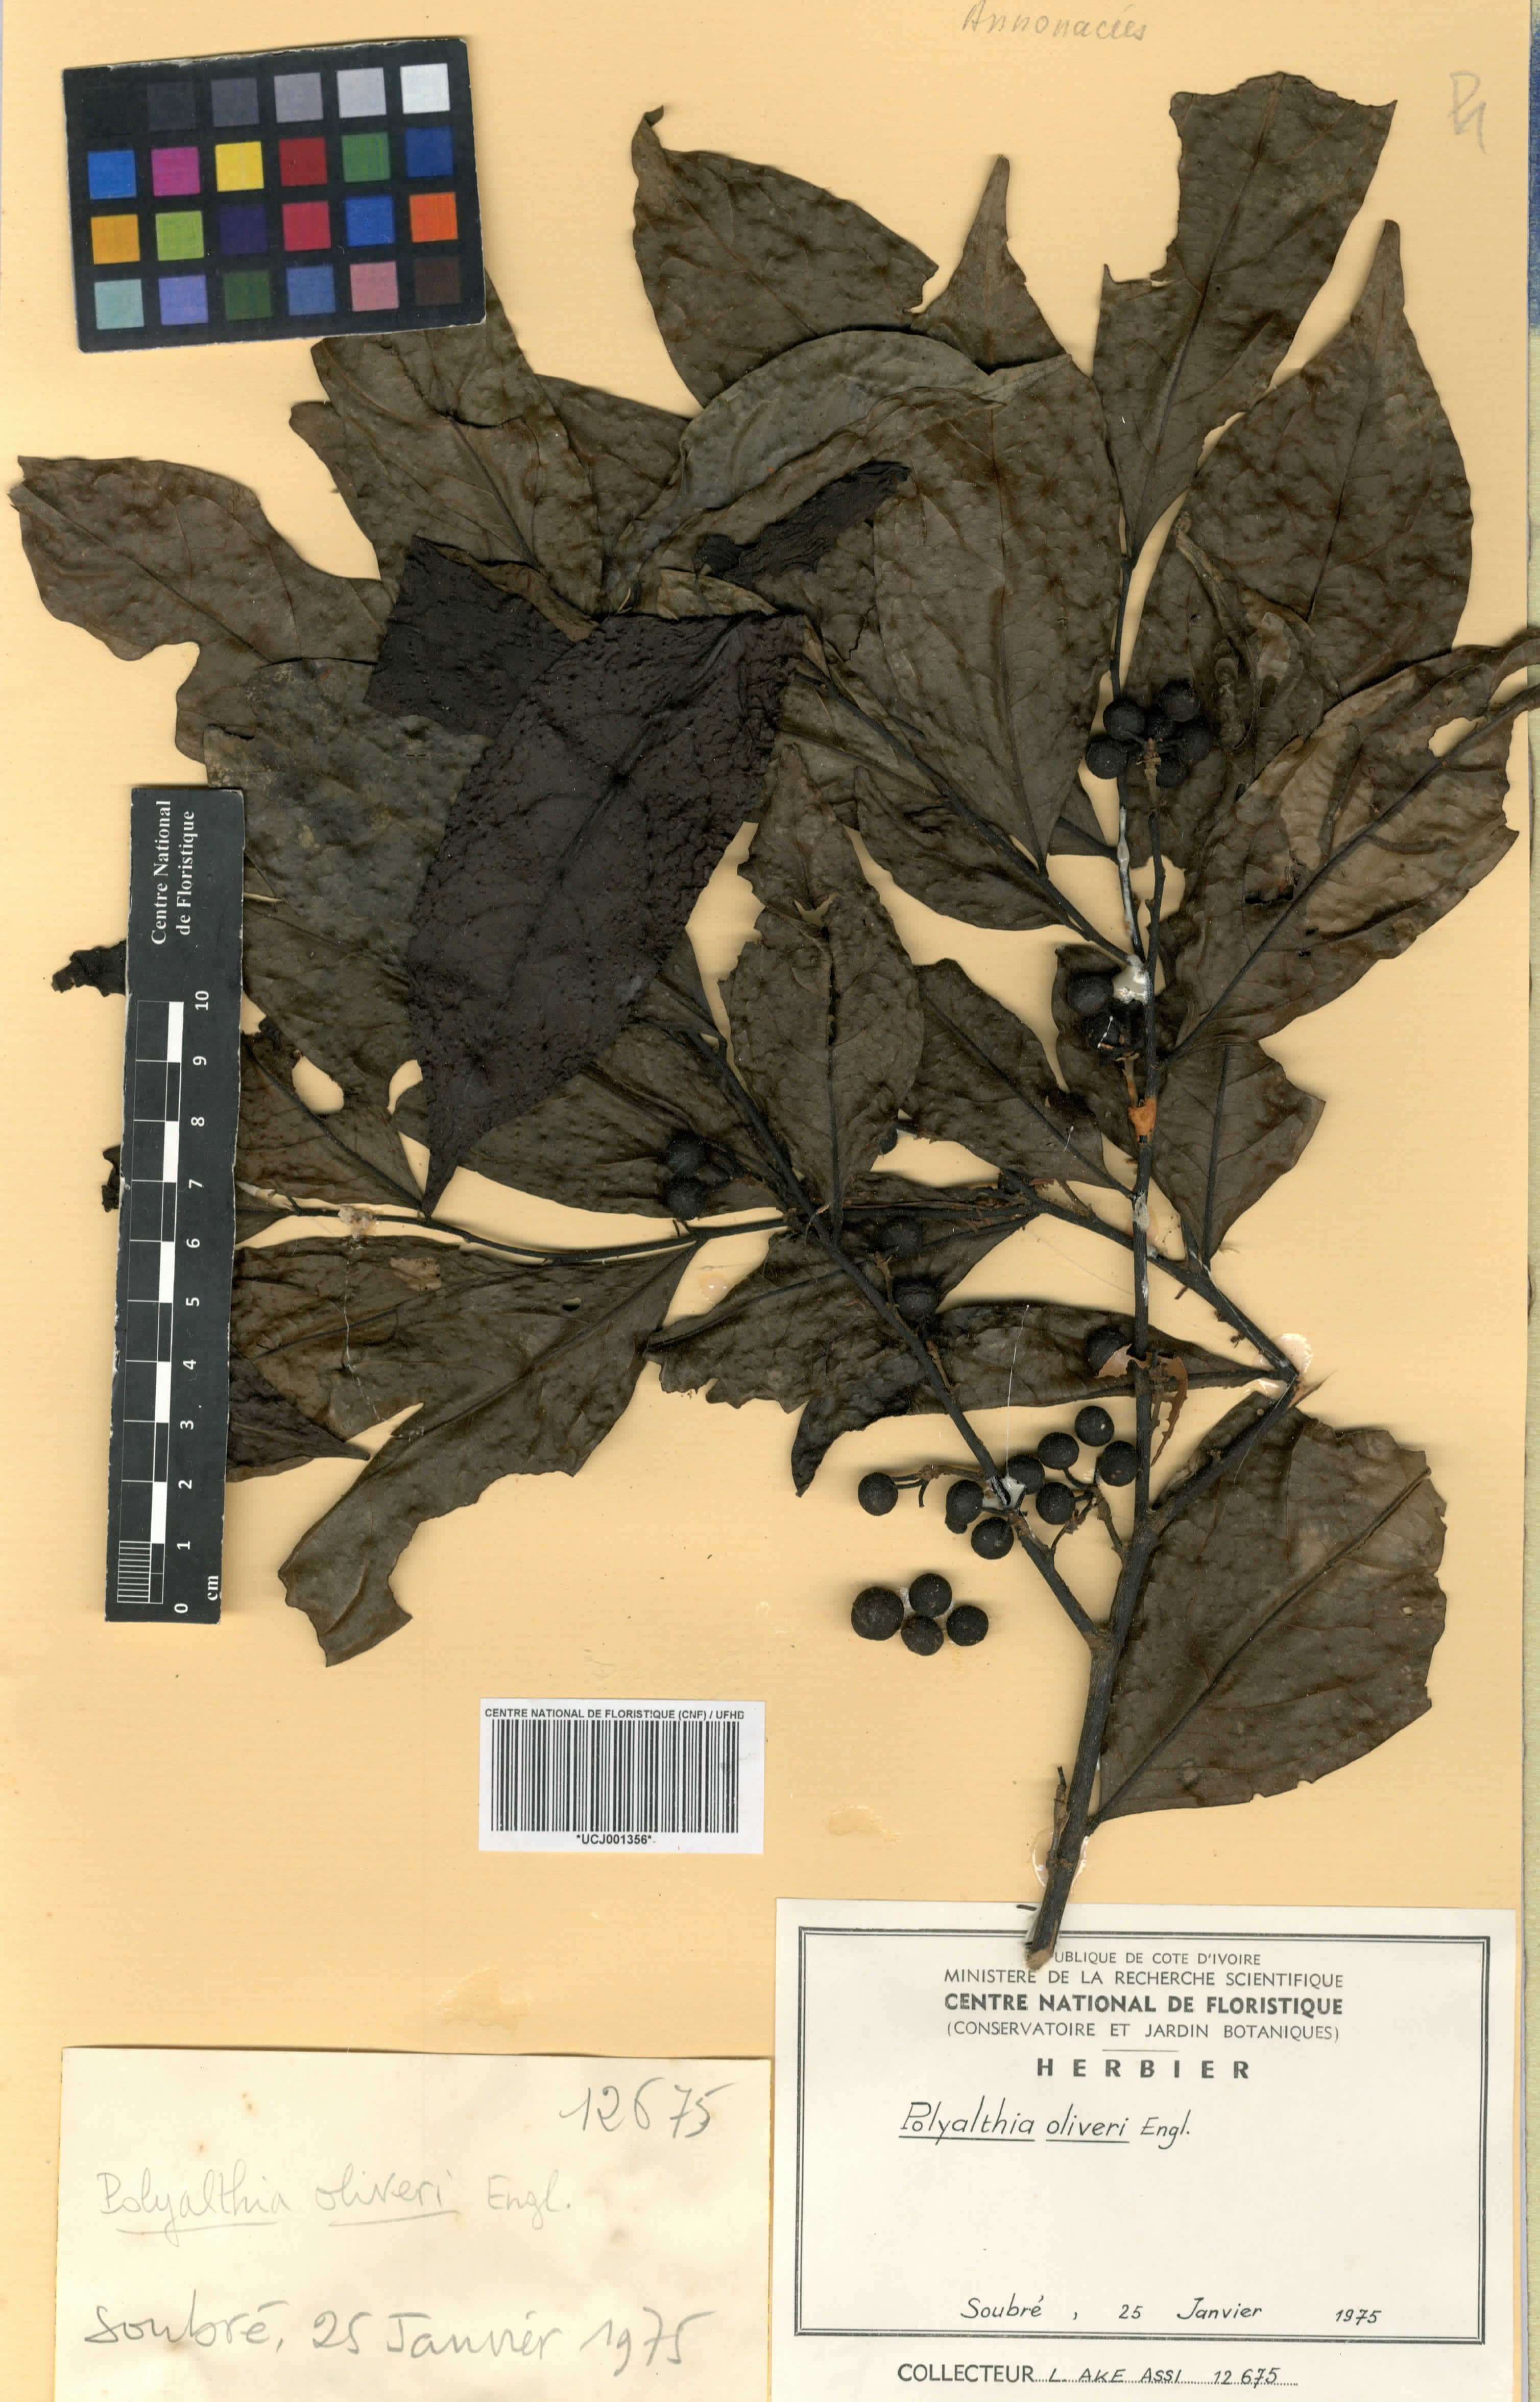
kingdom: Plantae
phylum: Tracheophyta
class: Magnoliopsida
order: Magnoliales
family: Annonaceae
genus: Greenwayodendron
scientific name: Greenwayodendron oliveri
